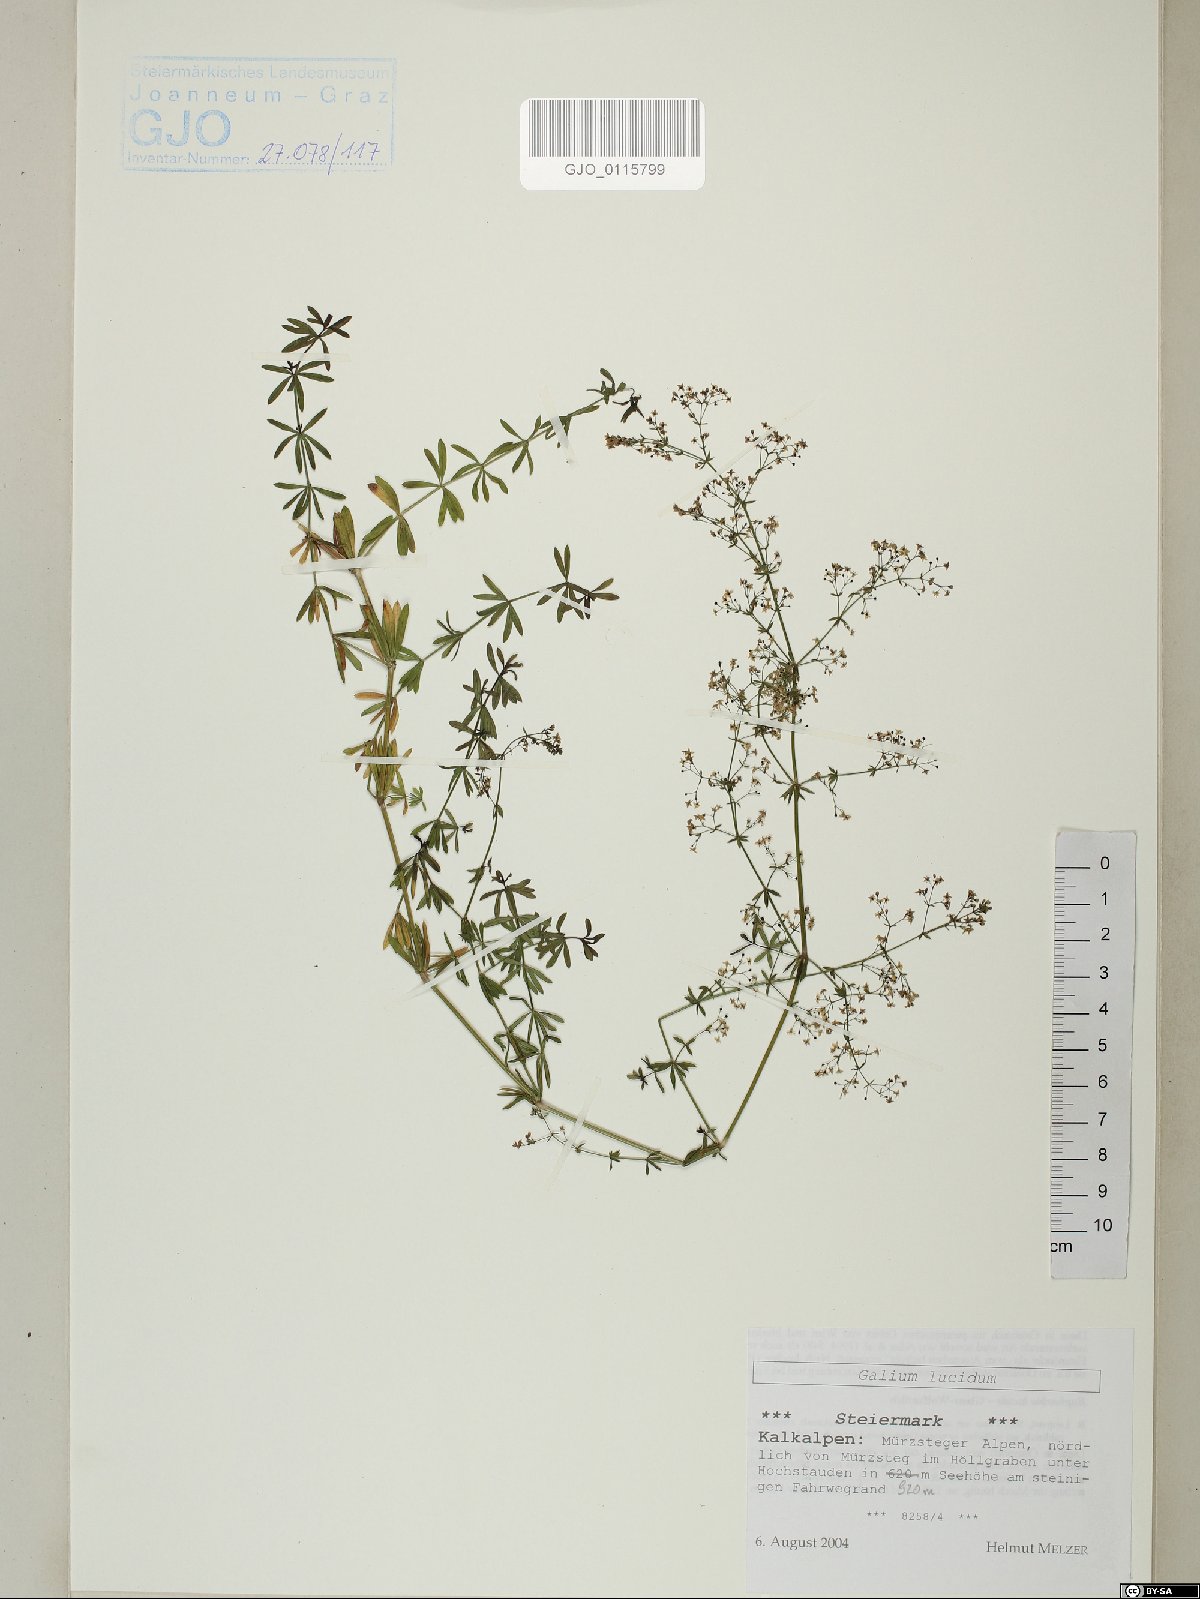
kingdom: Plantae
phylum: Tracheophyta
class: Magnoliopsida
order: Gentianales
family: Rubiaceae
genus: Galium
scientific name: Galium lucidum
